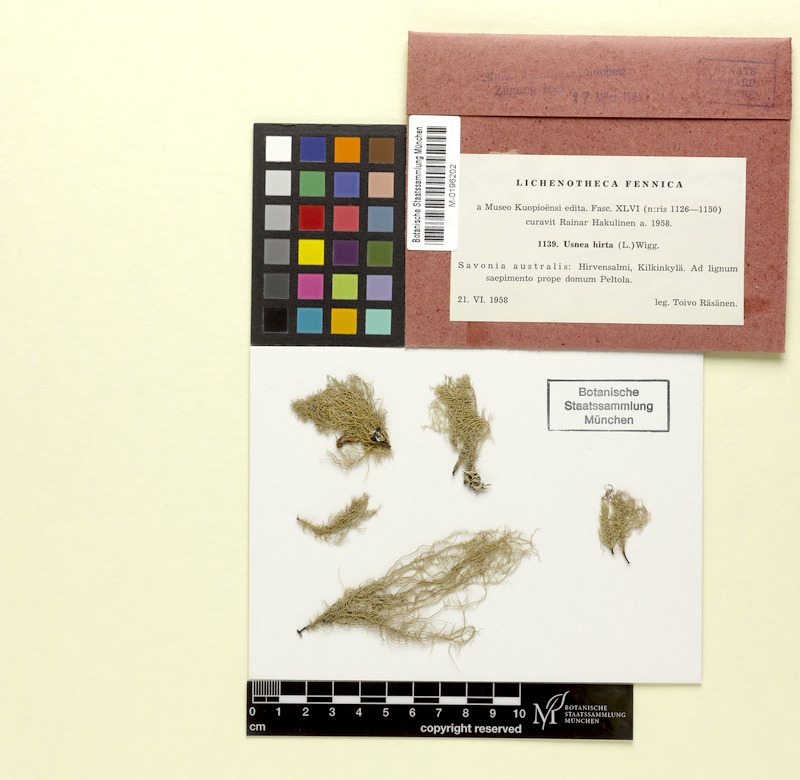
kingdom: Fungi
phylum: Ascomycota
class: Lecanoromycetes
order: Lecanorales
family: Parmeliaceae
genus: Usnea
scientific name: Usnea hirta
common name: Bristly beard lichen
